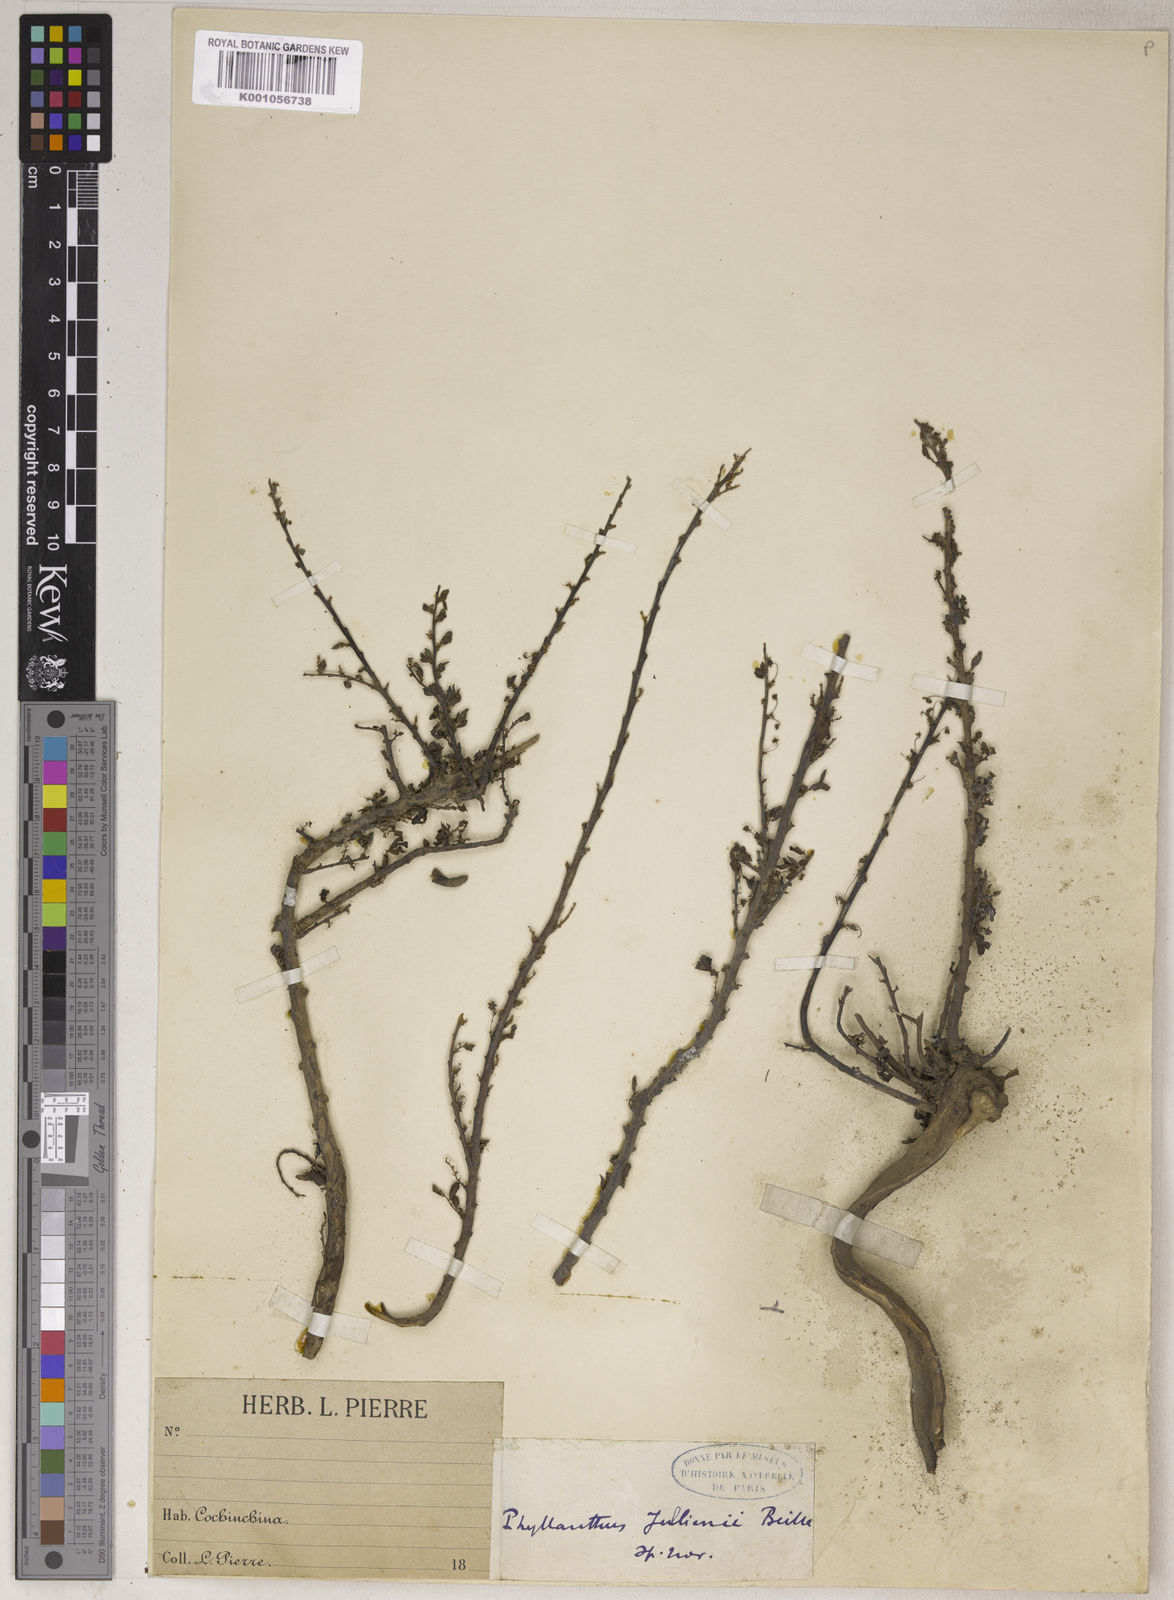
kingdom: Plantae
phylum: Tracheophyta
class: Magnoliopsida
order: Malpighiales
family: Phyllanthaceae
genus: Flueggea
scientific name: Flueggea jullienii
